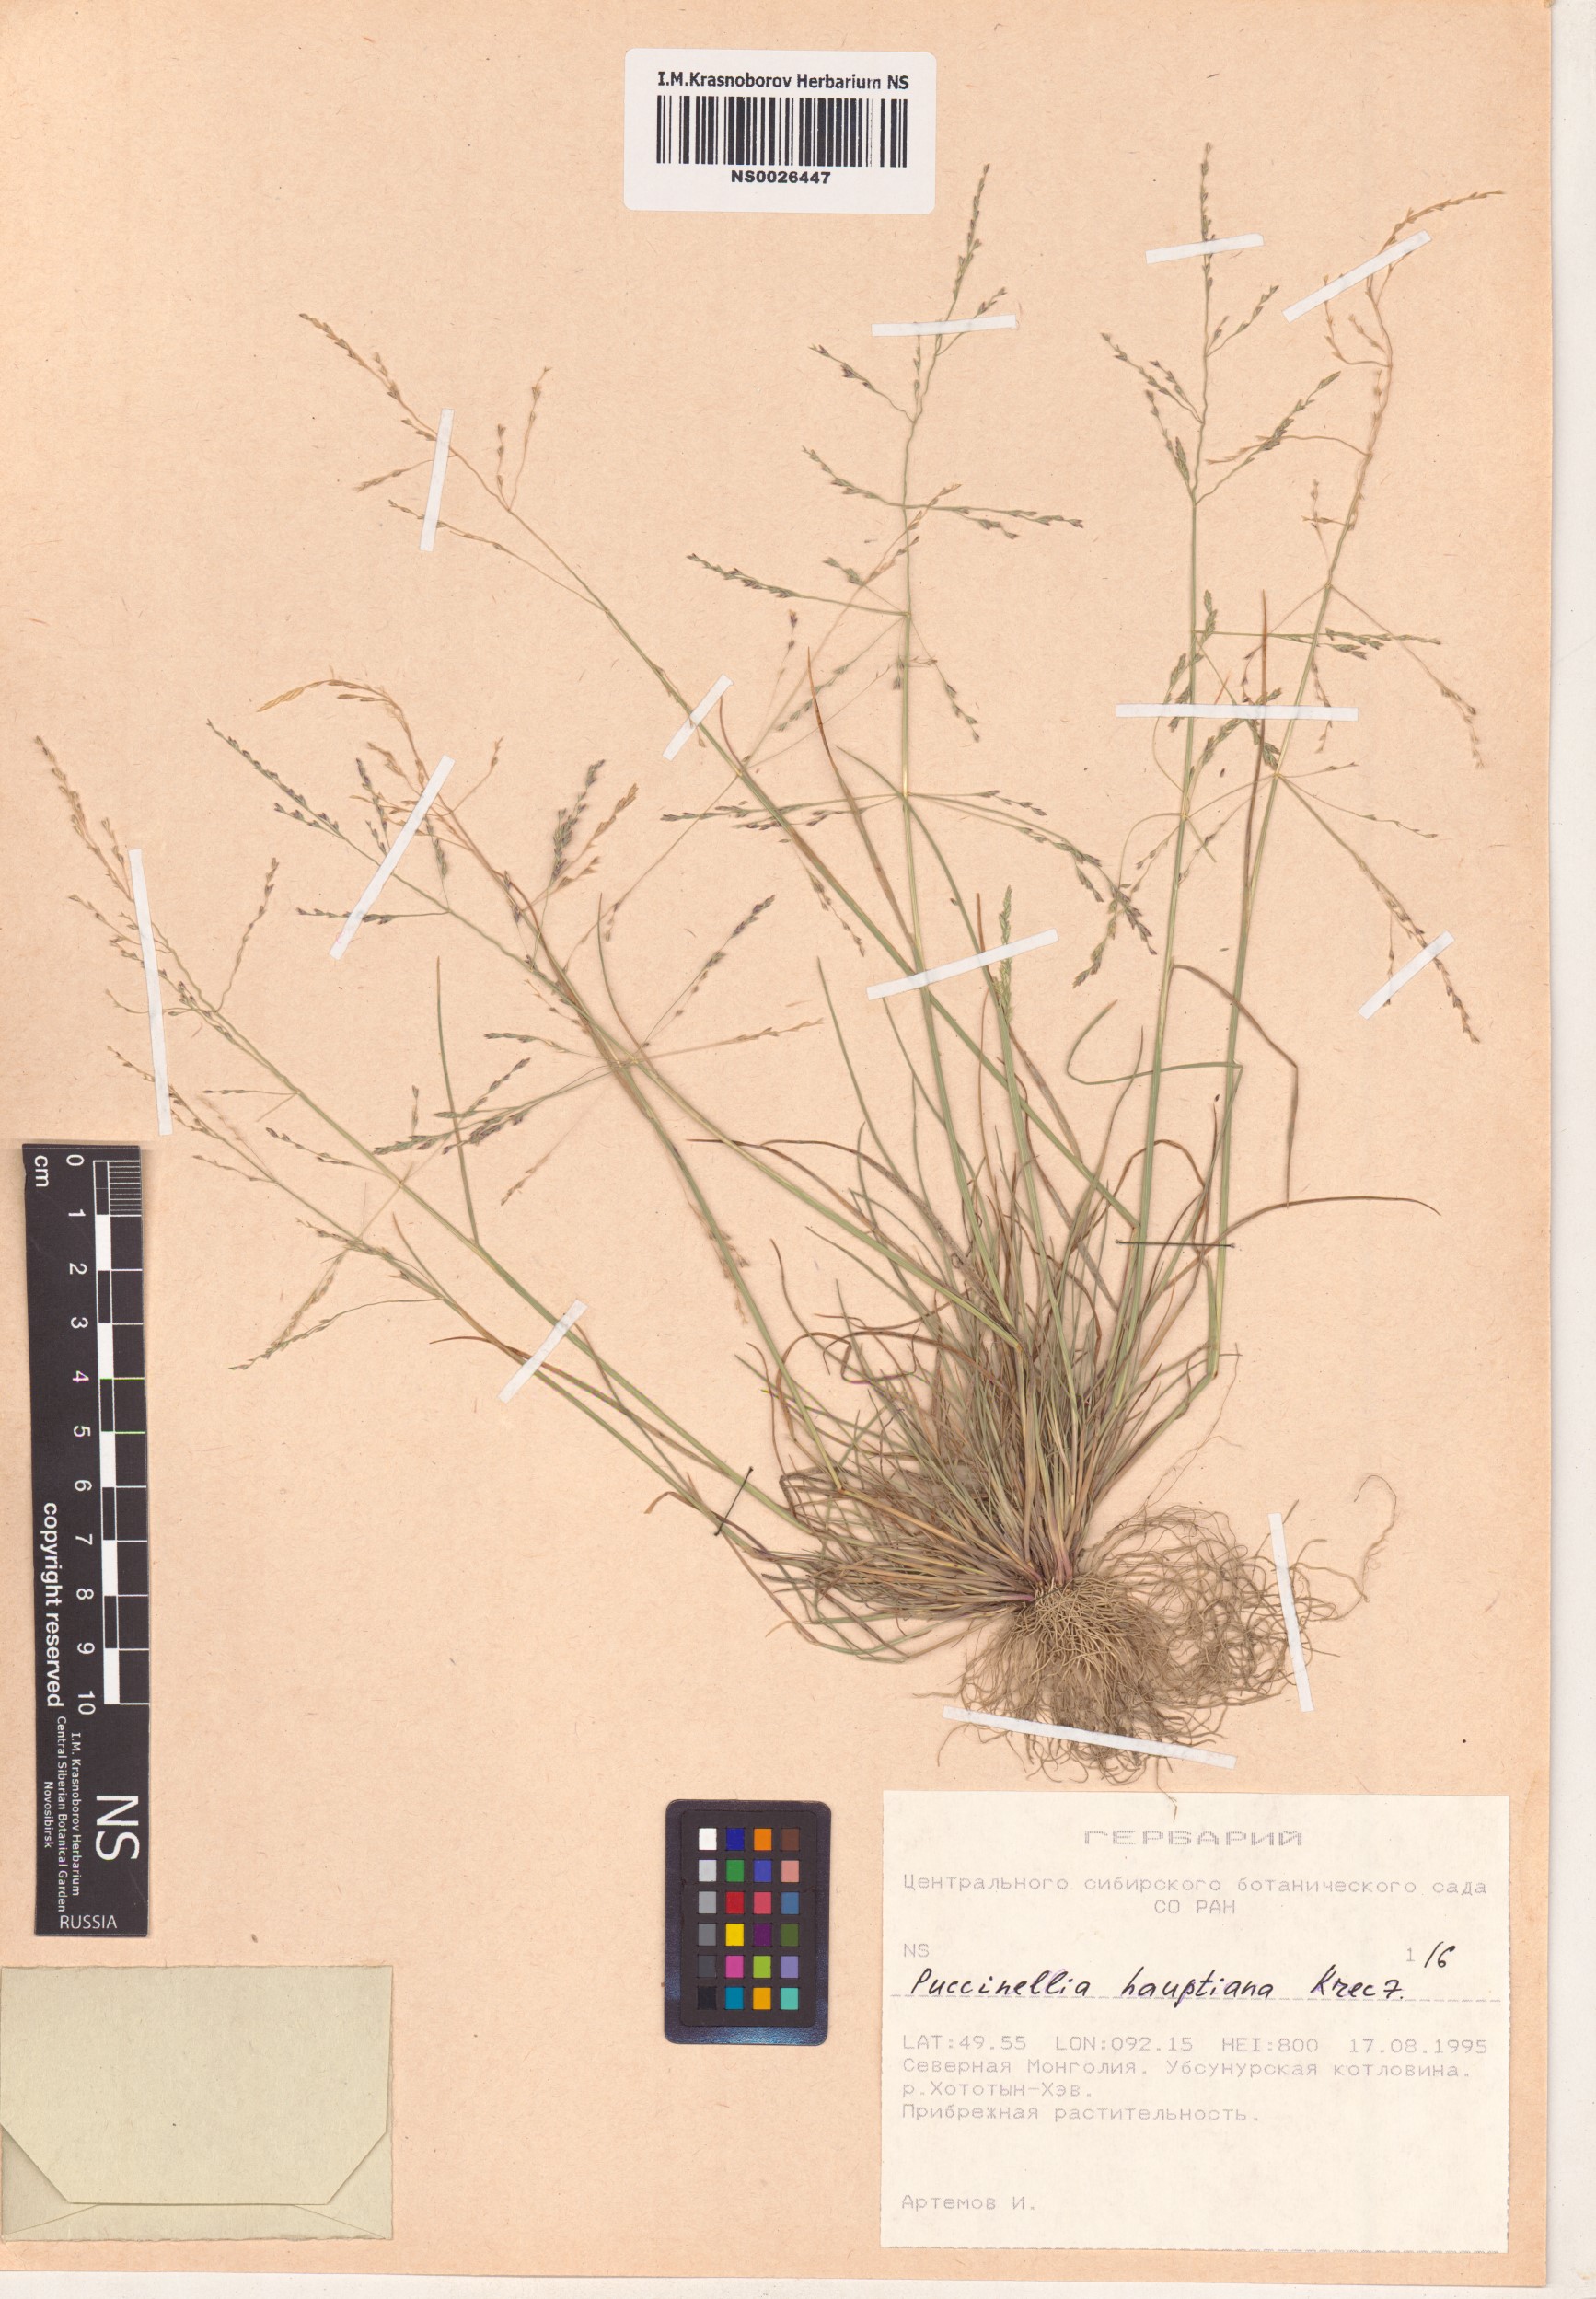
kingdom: Plantae
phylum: Tracheophyta
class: Liliopsida
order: Poales
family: Poaceae
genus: Puccinellia
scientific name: Puccinellia hauptiana
